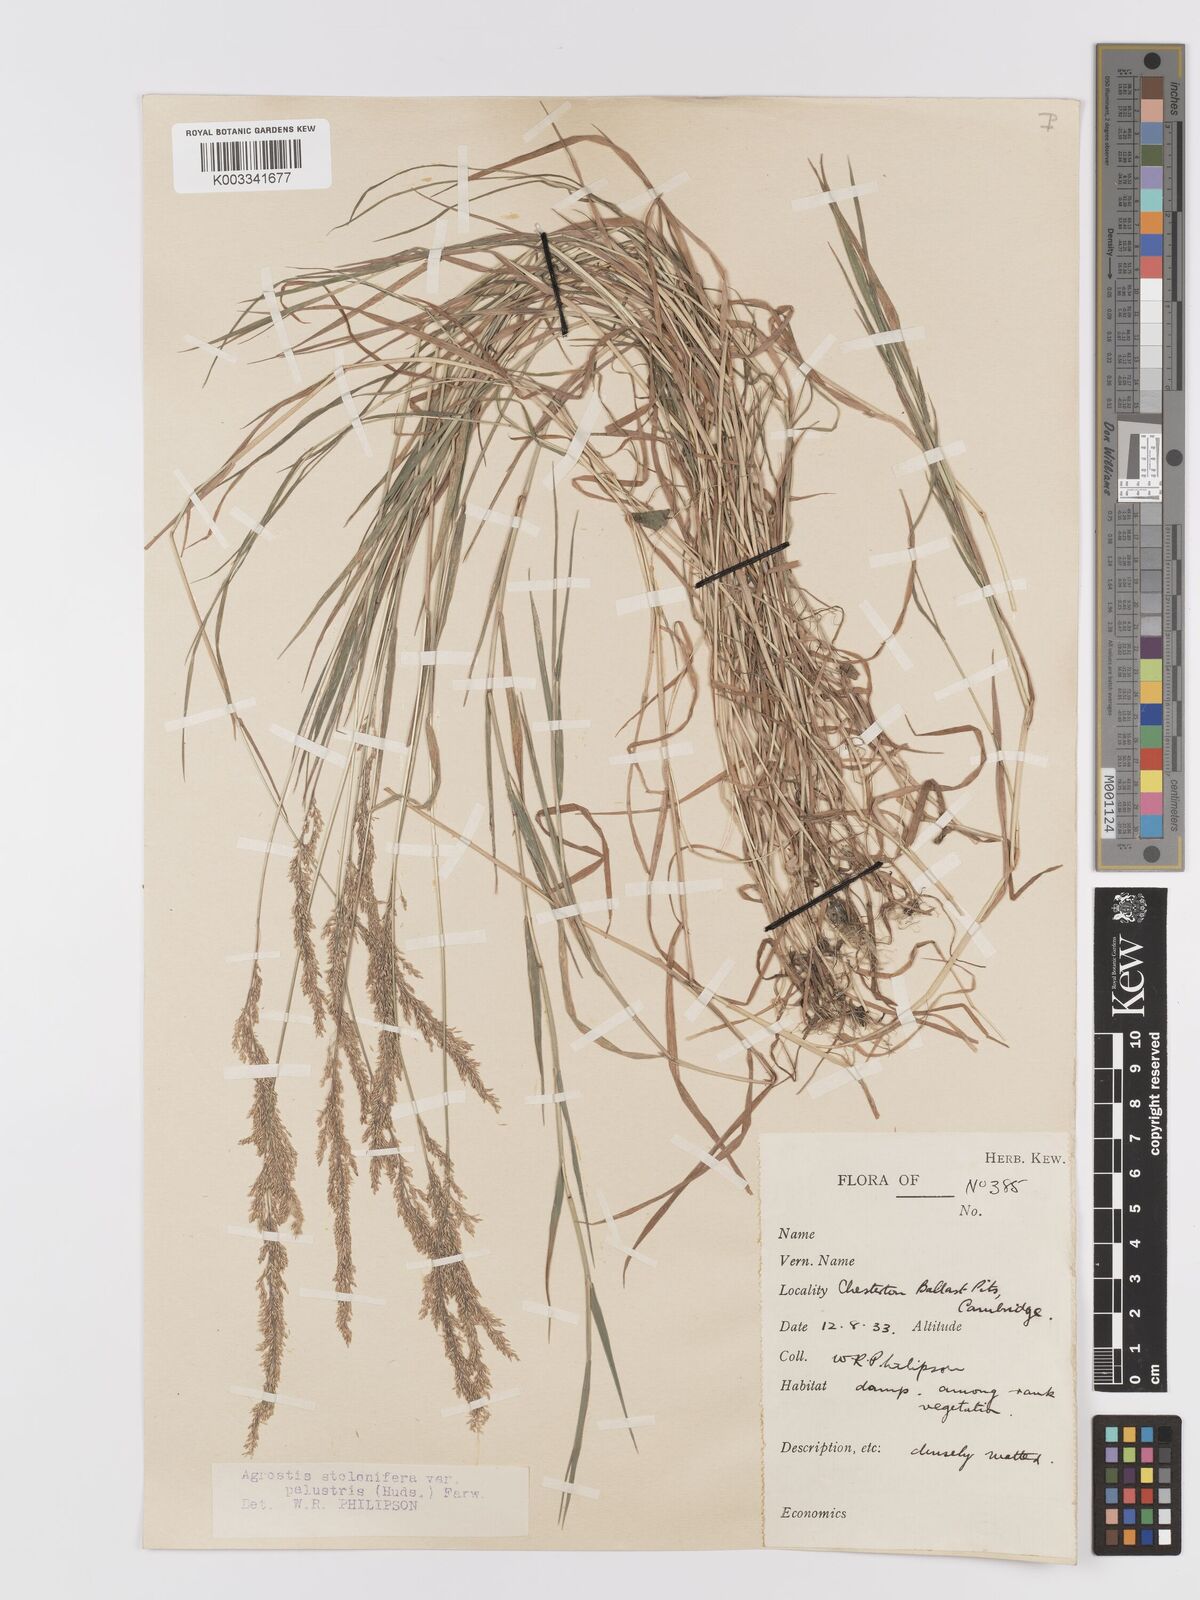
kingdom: Plantae
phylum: Tracheophyta
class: Liliopsida
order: Poales
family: Poaceae
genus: Agrostis
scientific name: Agrostis stolonifera
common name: Creeping bentgrass
